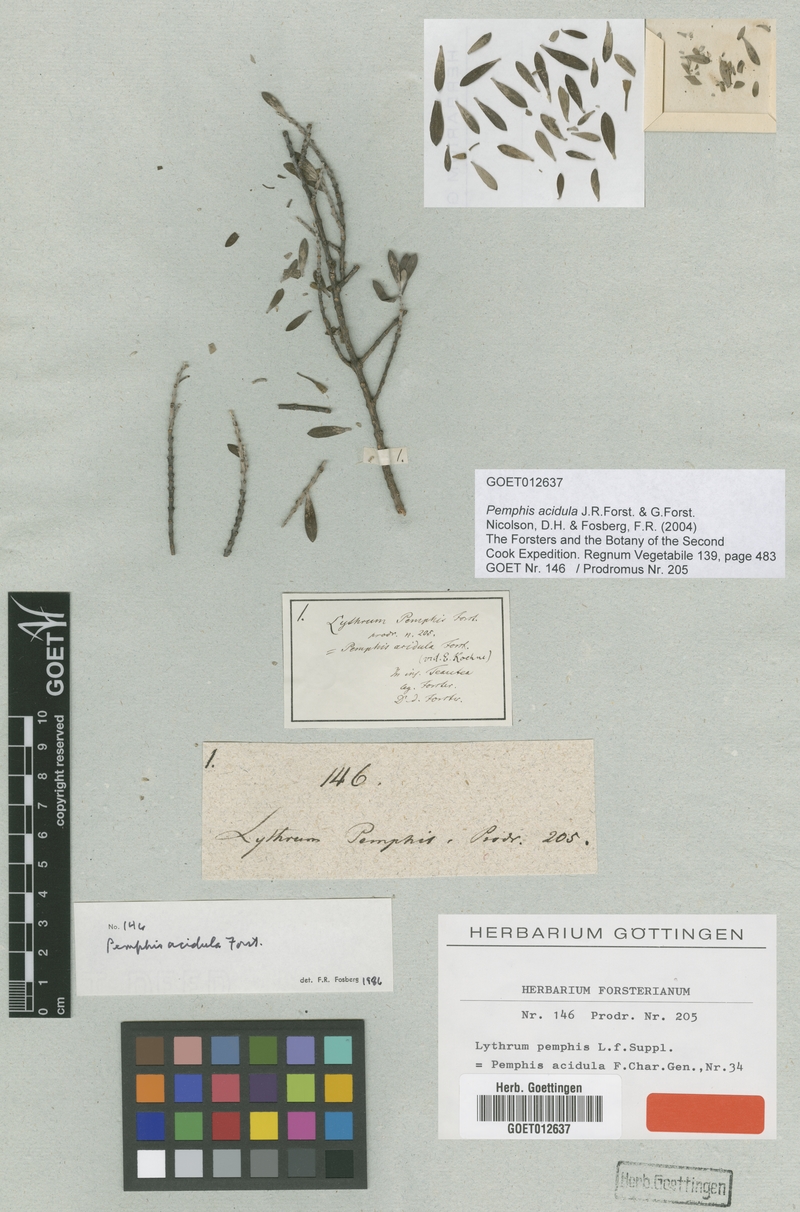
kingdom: Plantae
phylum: Tracheophyta
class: Magnoliopsida
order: Myrtales
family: Lythraceae
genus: Pemphis
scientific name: Pemphis acidula
